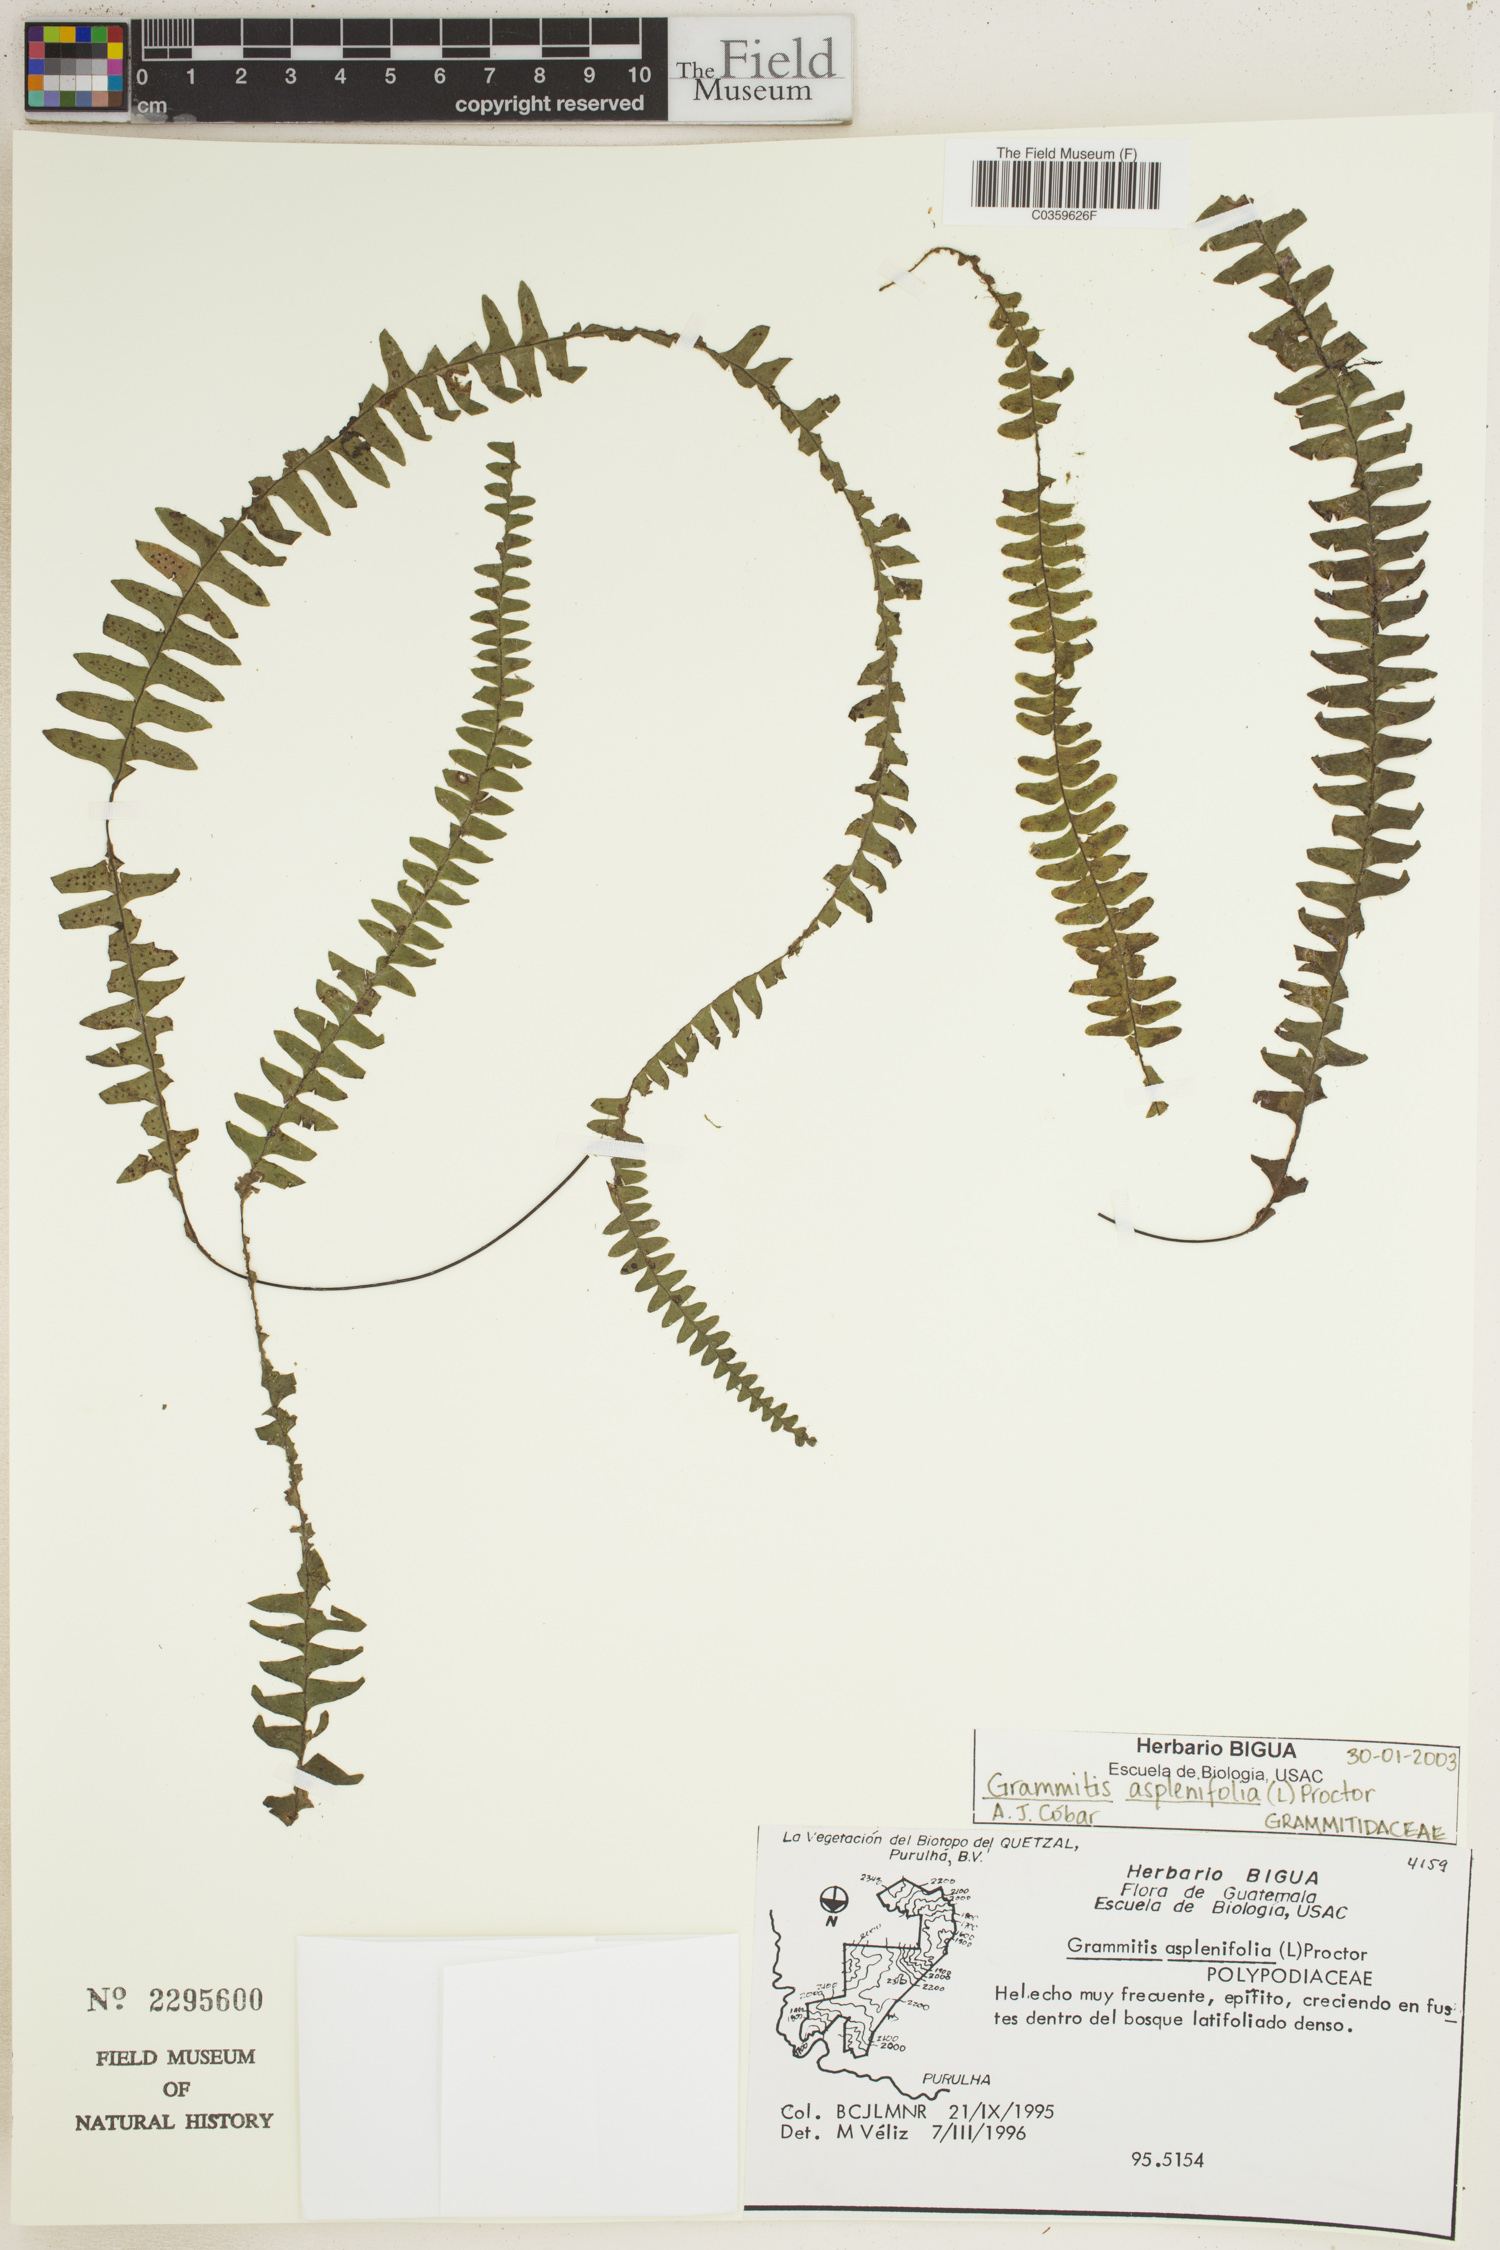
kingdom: Plantae
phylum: Tracheophyta
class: Polypodiopsida
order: Polypodiales
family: Polypodiaceae
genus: Terpsichore
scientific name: Terpsichore asplenifolia
